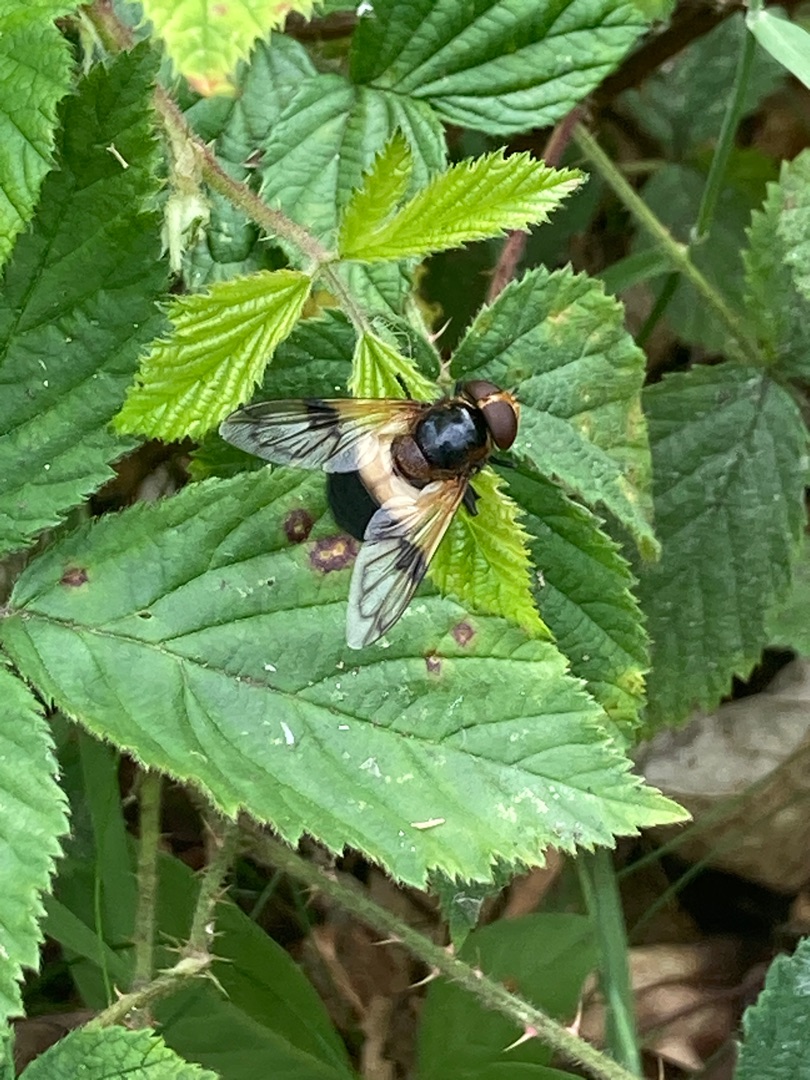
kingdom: Animalia
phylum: Arthropoda
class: Insecta
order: Diptera
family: Syrphidae
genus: Volucella
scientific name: Volucella pellucens
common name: Hvidbåndet humlesvirreflue
